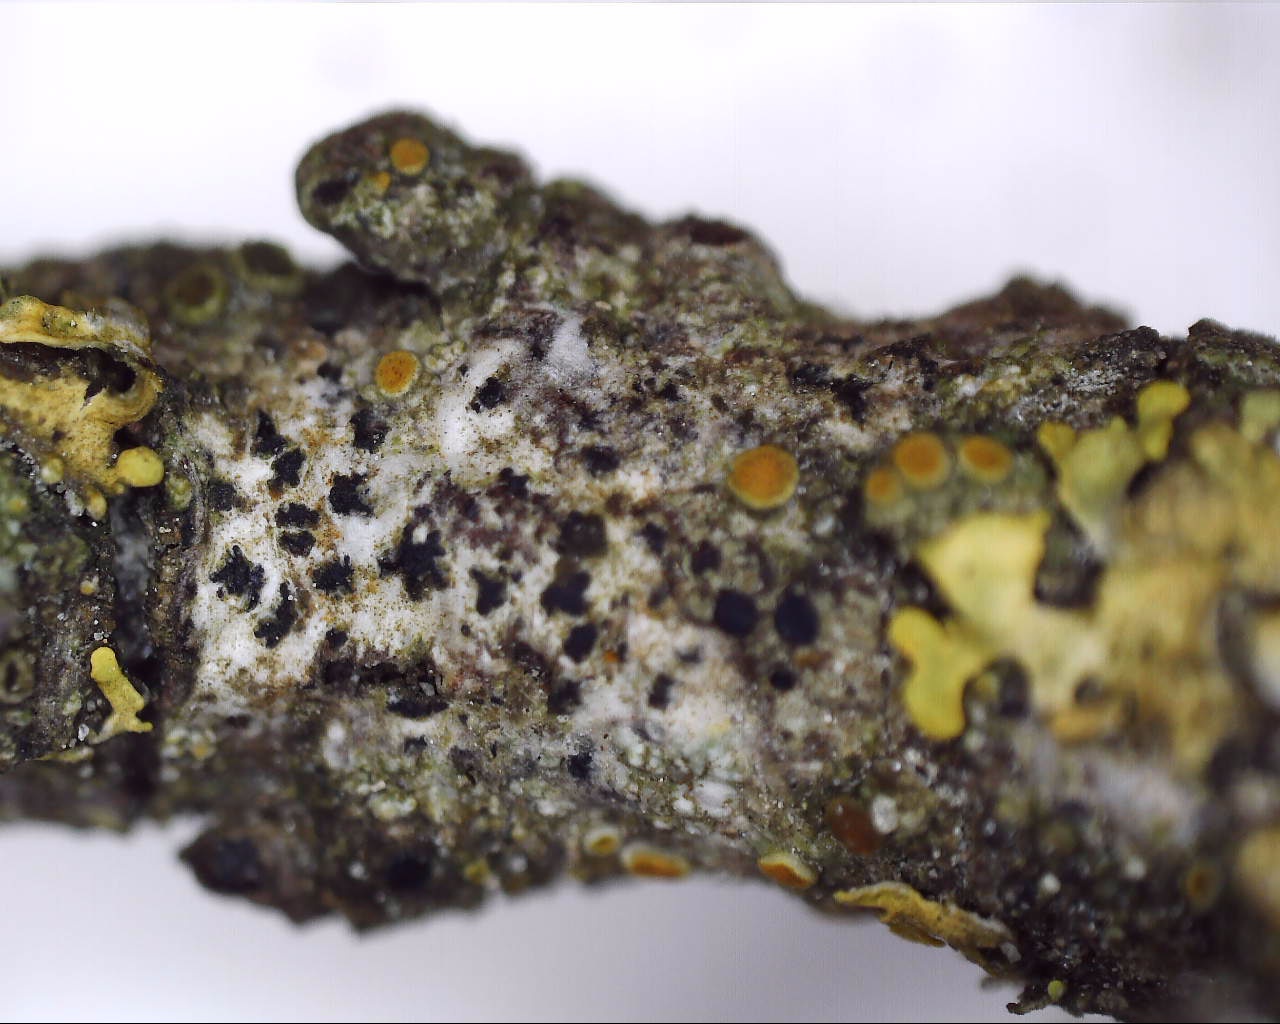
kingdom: Fungi
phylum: Ascomycota
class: Arthoniomycetes
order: Arthoniales
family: Arthoniaceae
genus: Arthonia
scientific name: Arthonia radiata
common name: stjerne-pletlav
